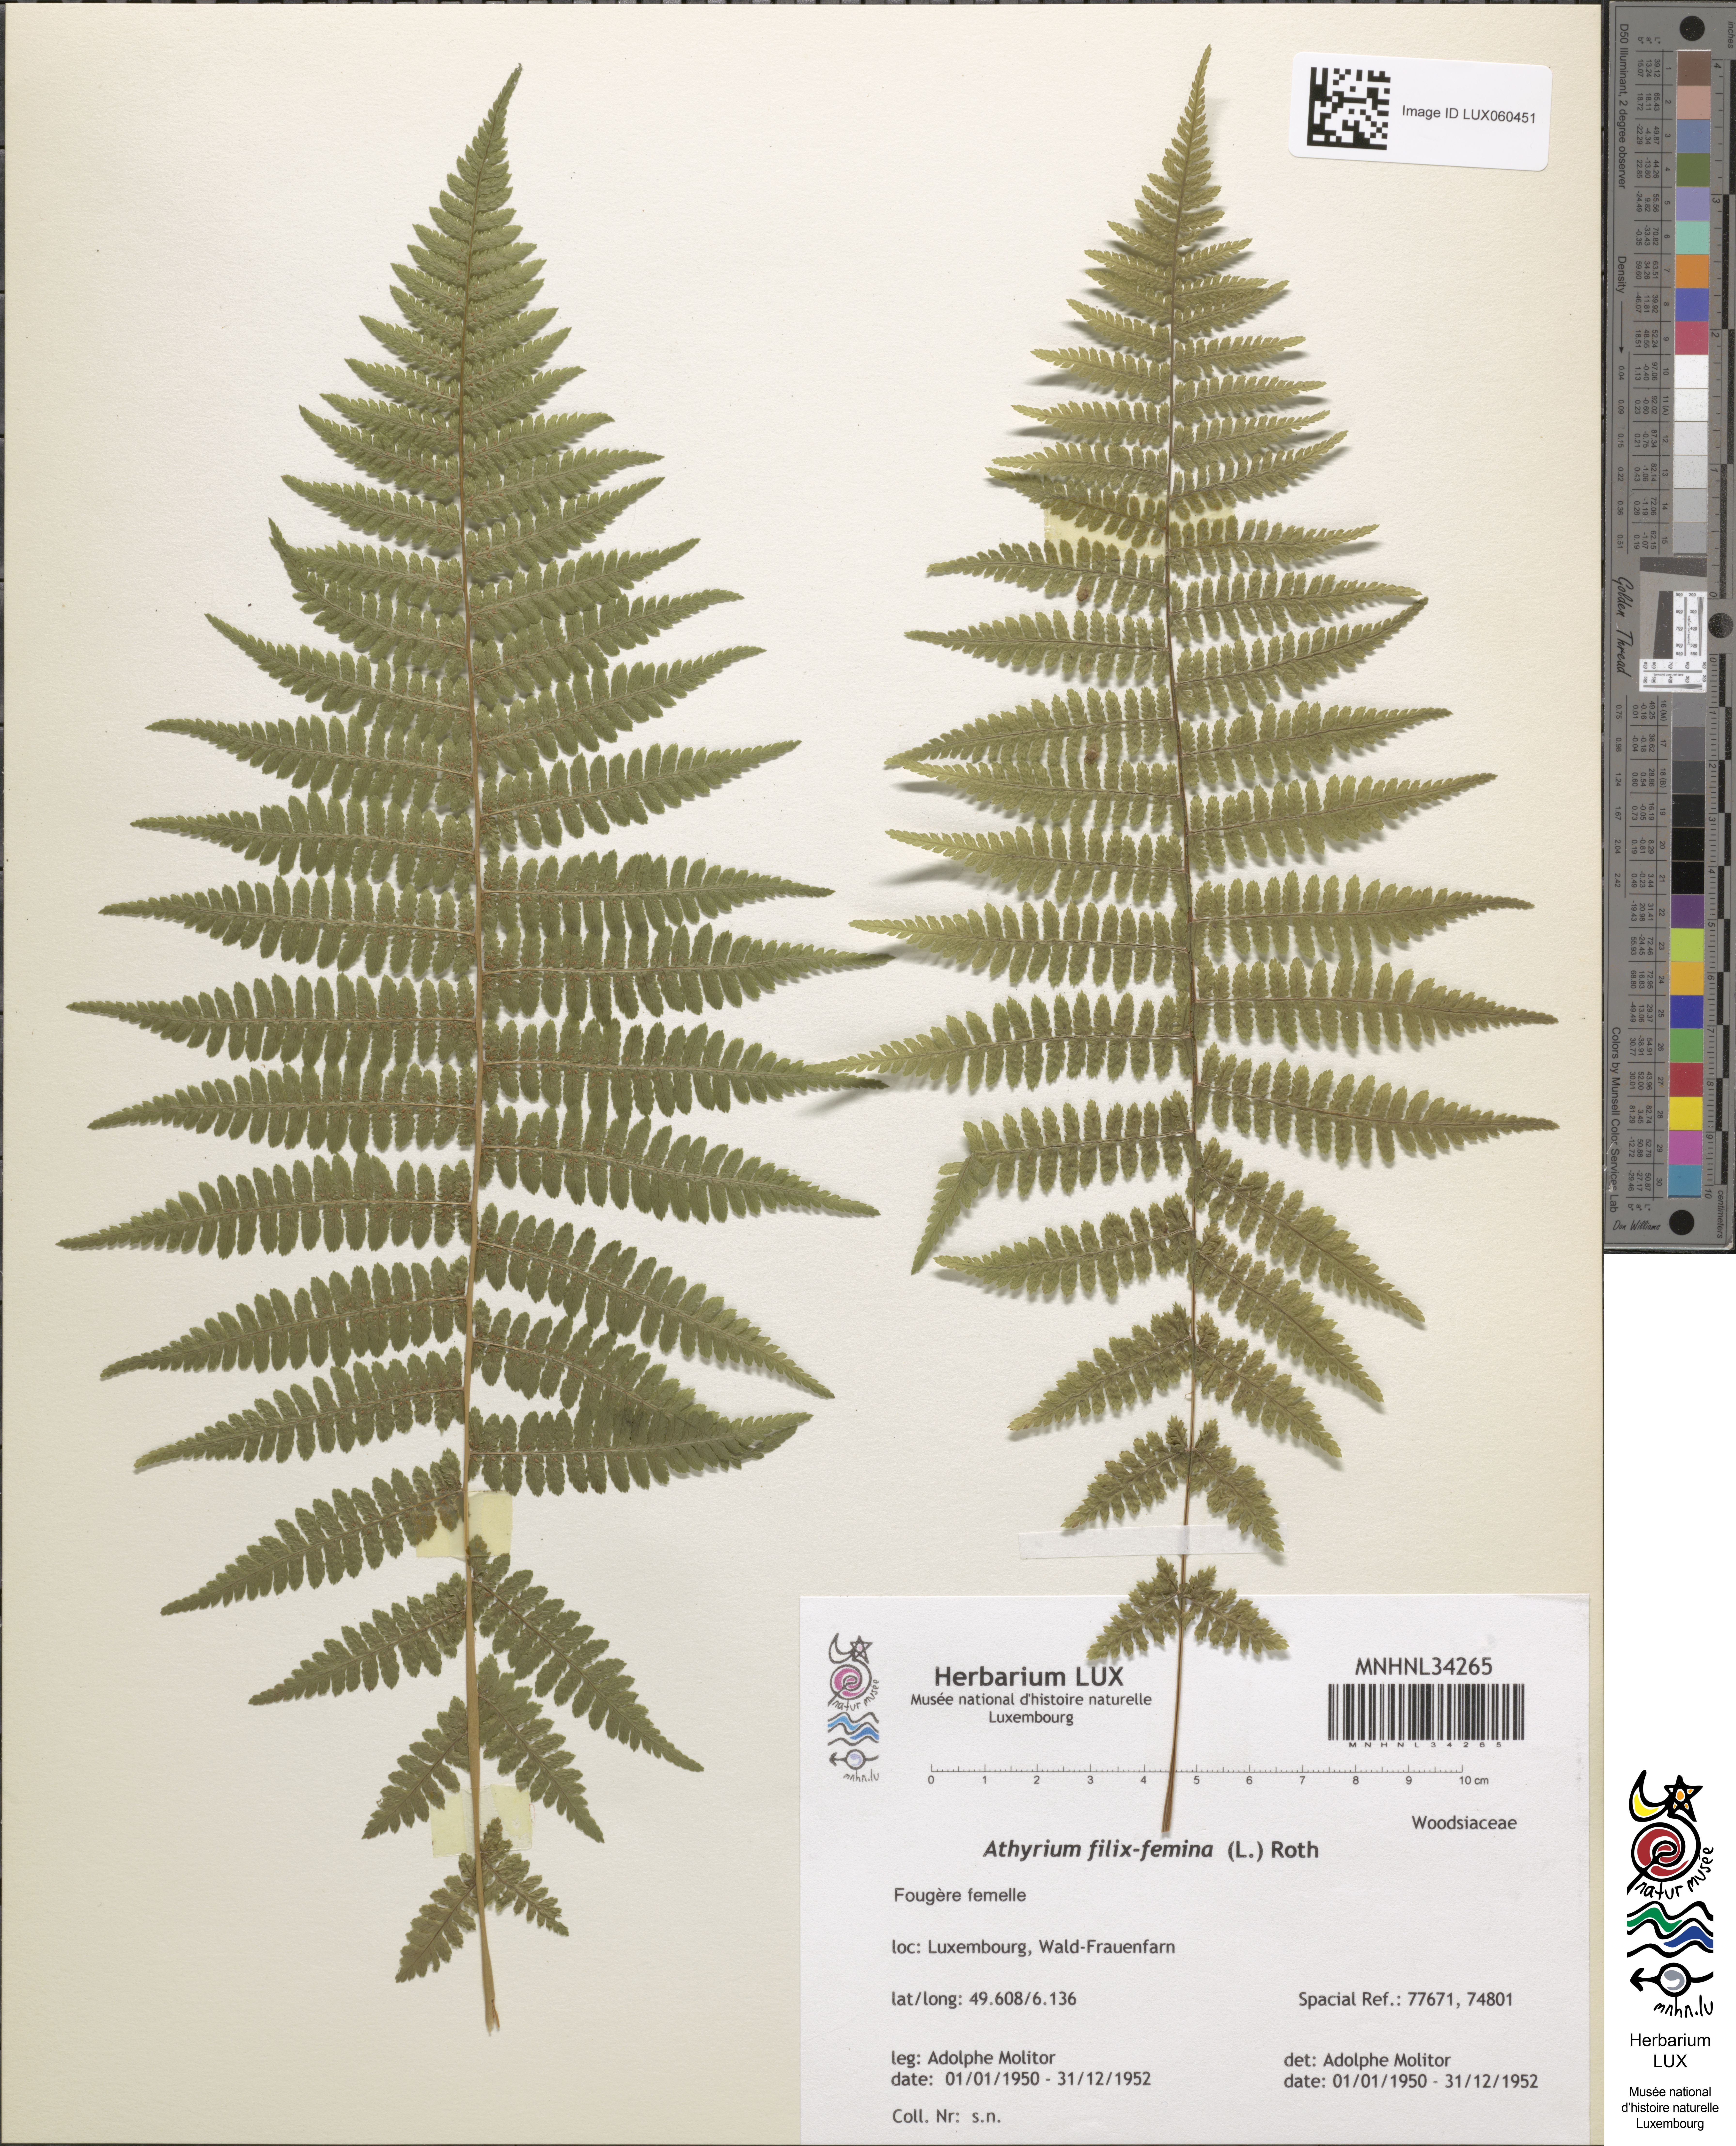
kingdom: Plantae
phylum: Tracheophyta
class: Polypodiopsida
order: Polypodiales
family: Athyriaceae
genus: Athyrium
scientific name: Athyrium filix-femina
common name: Lady fern
